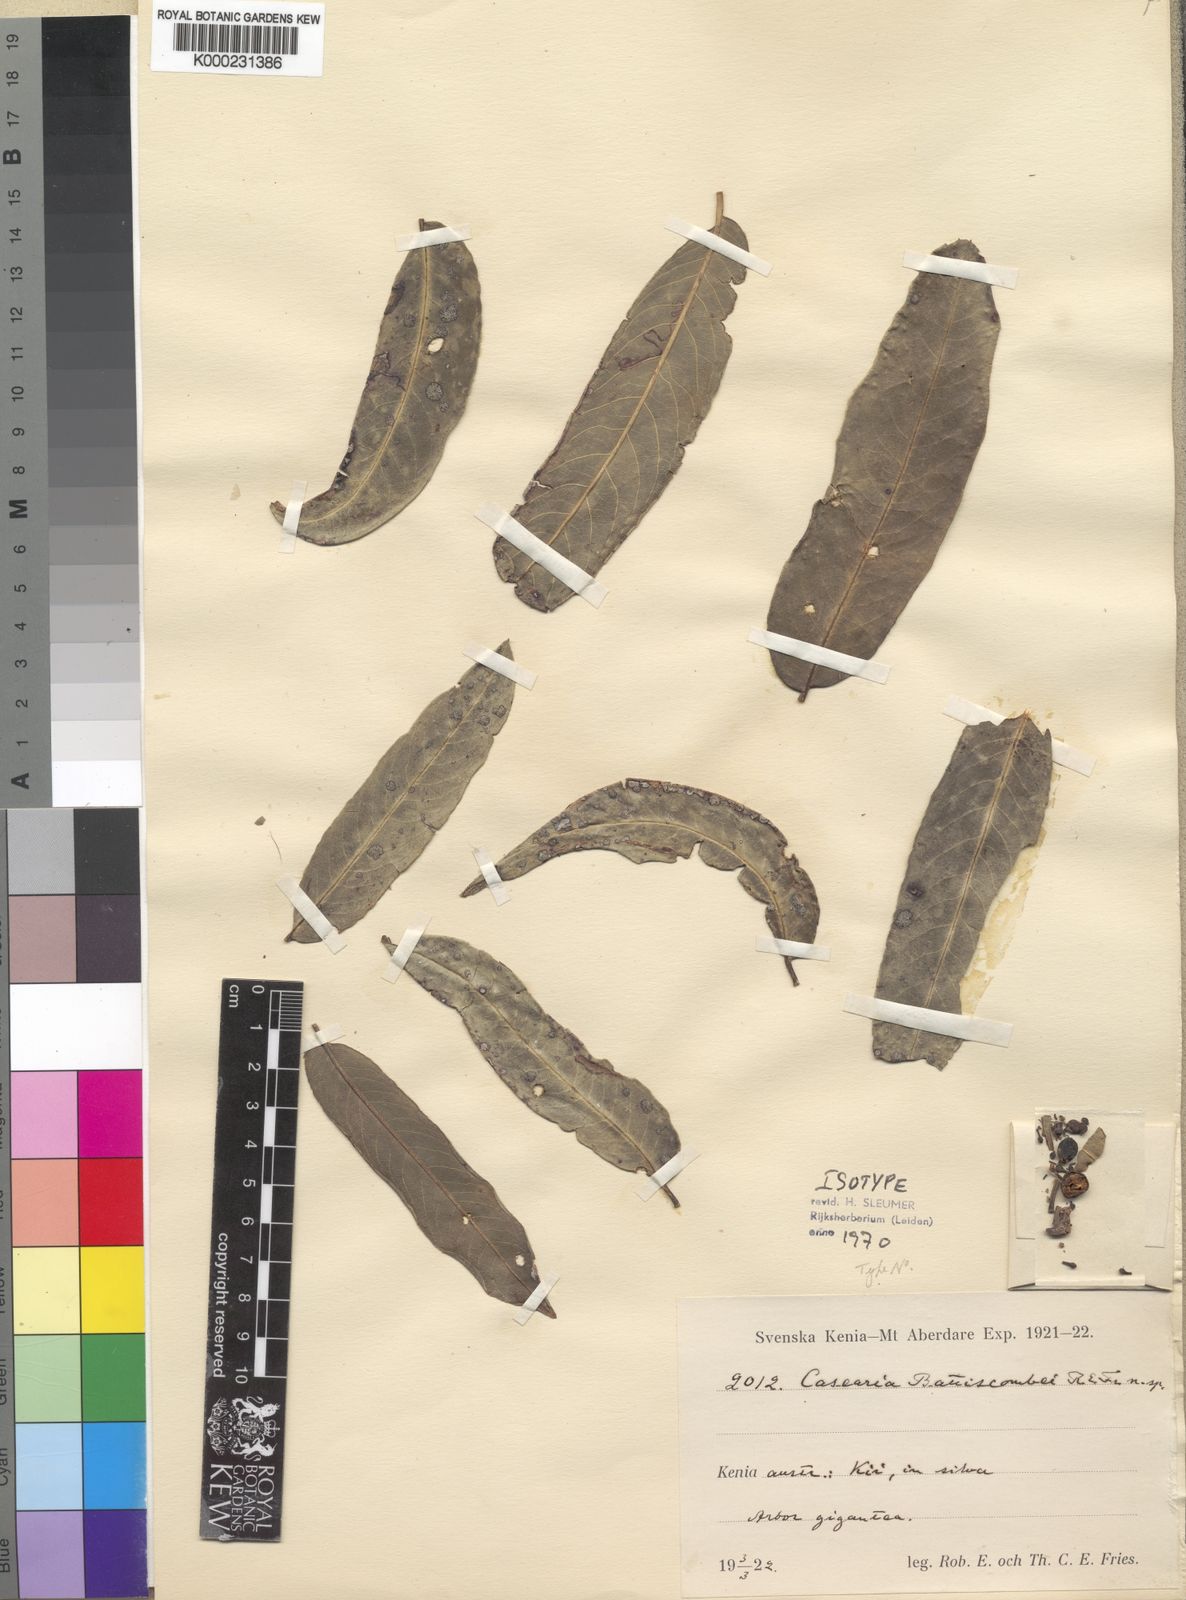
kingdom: Plantae
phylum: Tracheophyta
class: Magnoliopsida
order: Malpighiales
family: Salicaceae
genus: Casearia
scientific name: Casearia battiscombei
